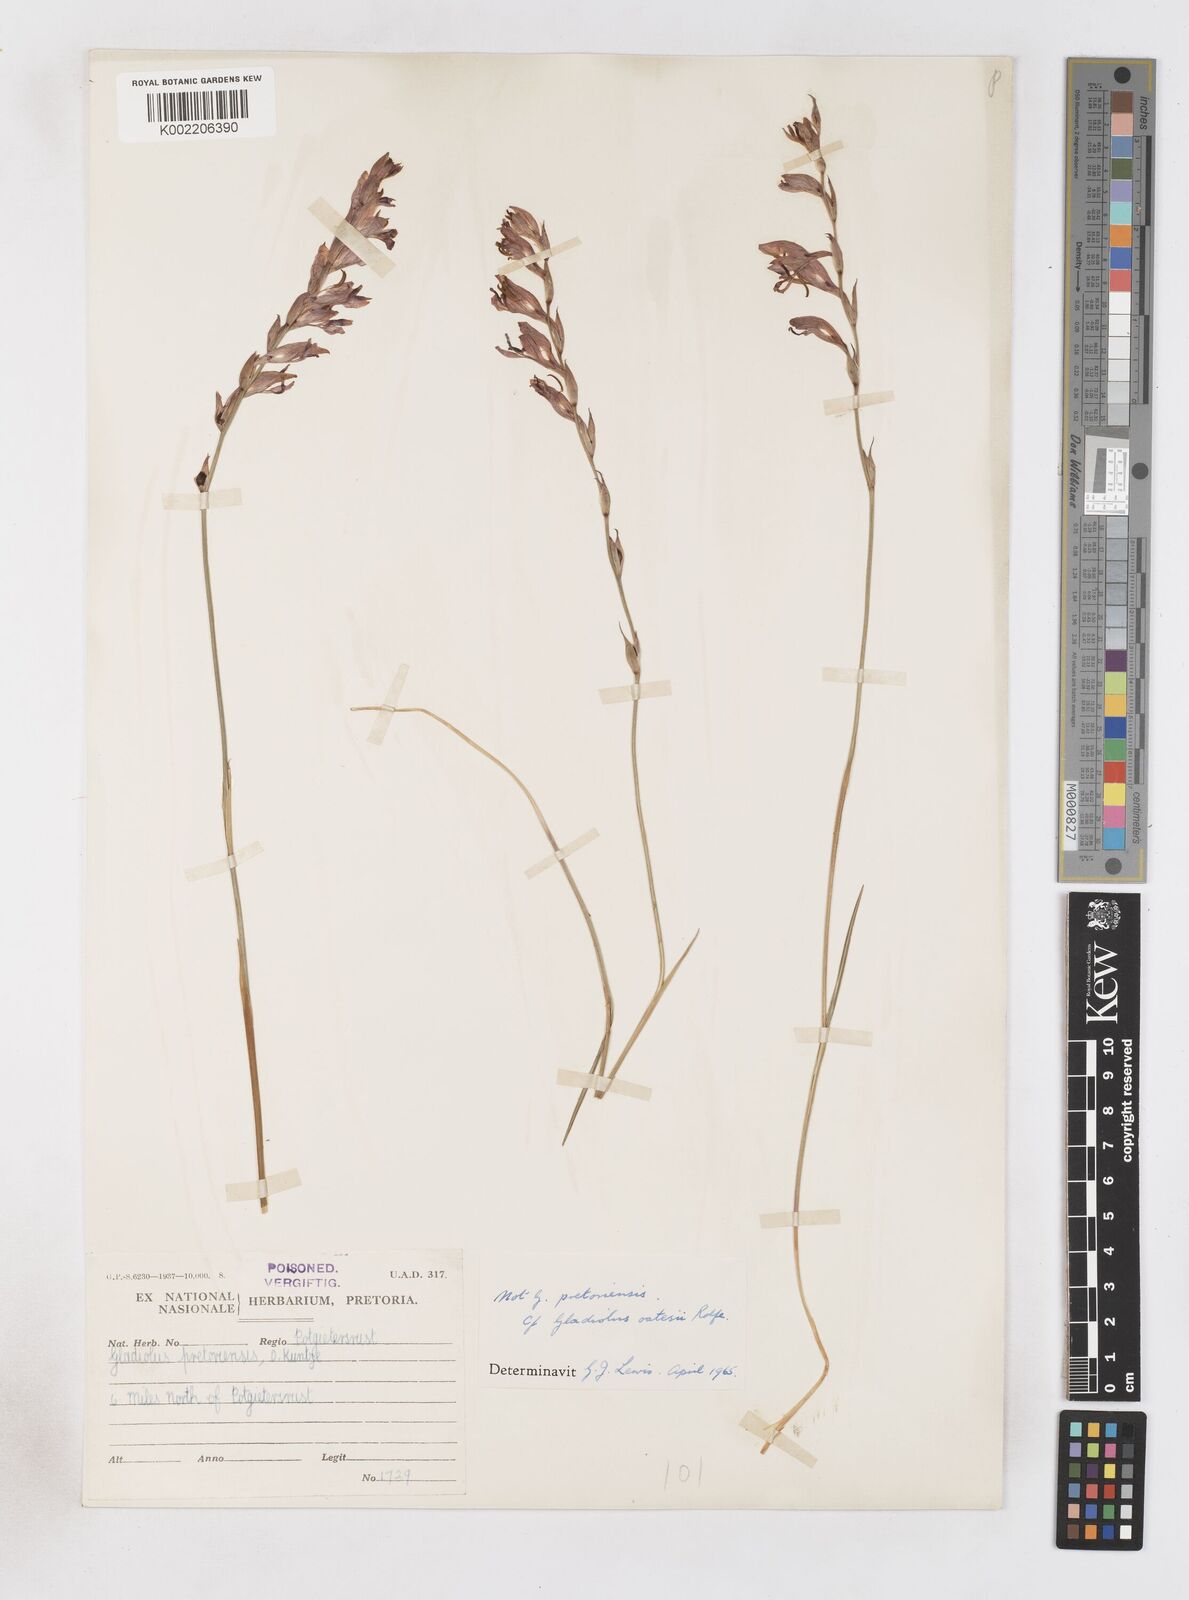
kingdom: Plantae
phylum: Tracheophyta
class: Liliopsida
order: Asparagales
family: Iridaceae
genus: Gladiolus
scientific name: Gladiolus unguiculatus
